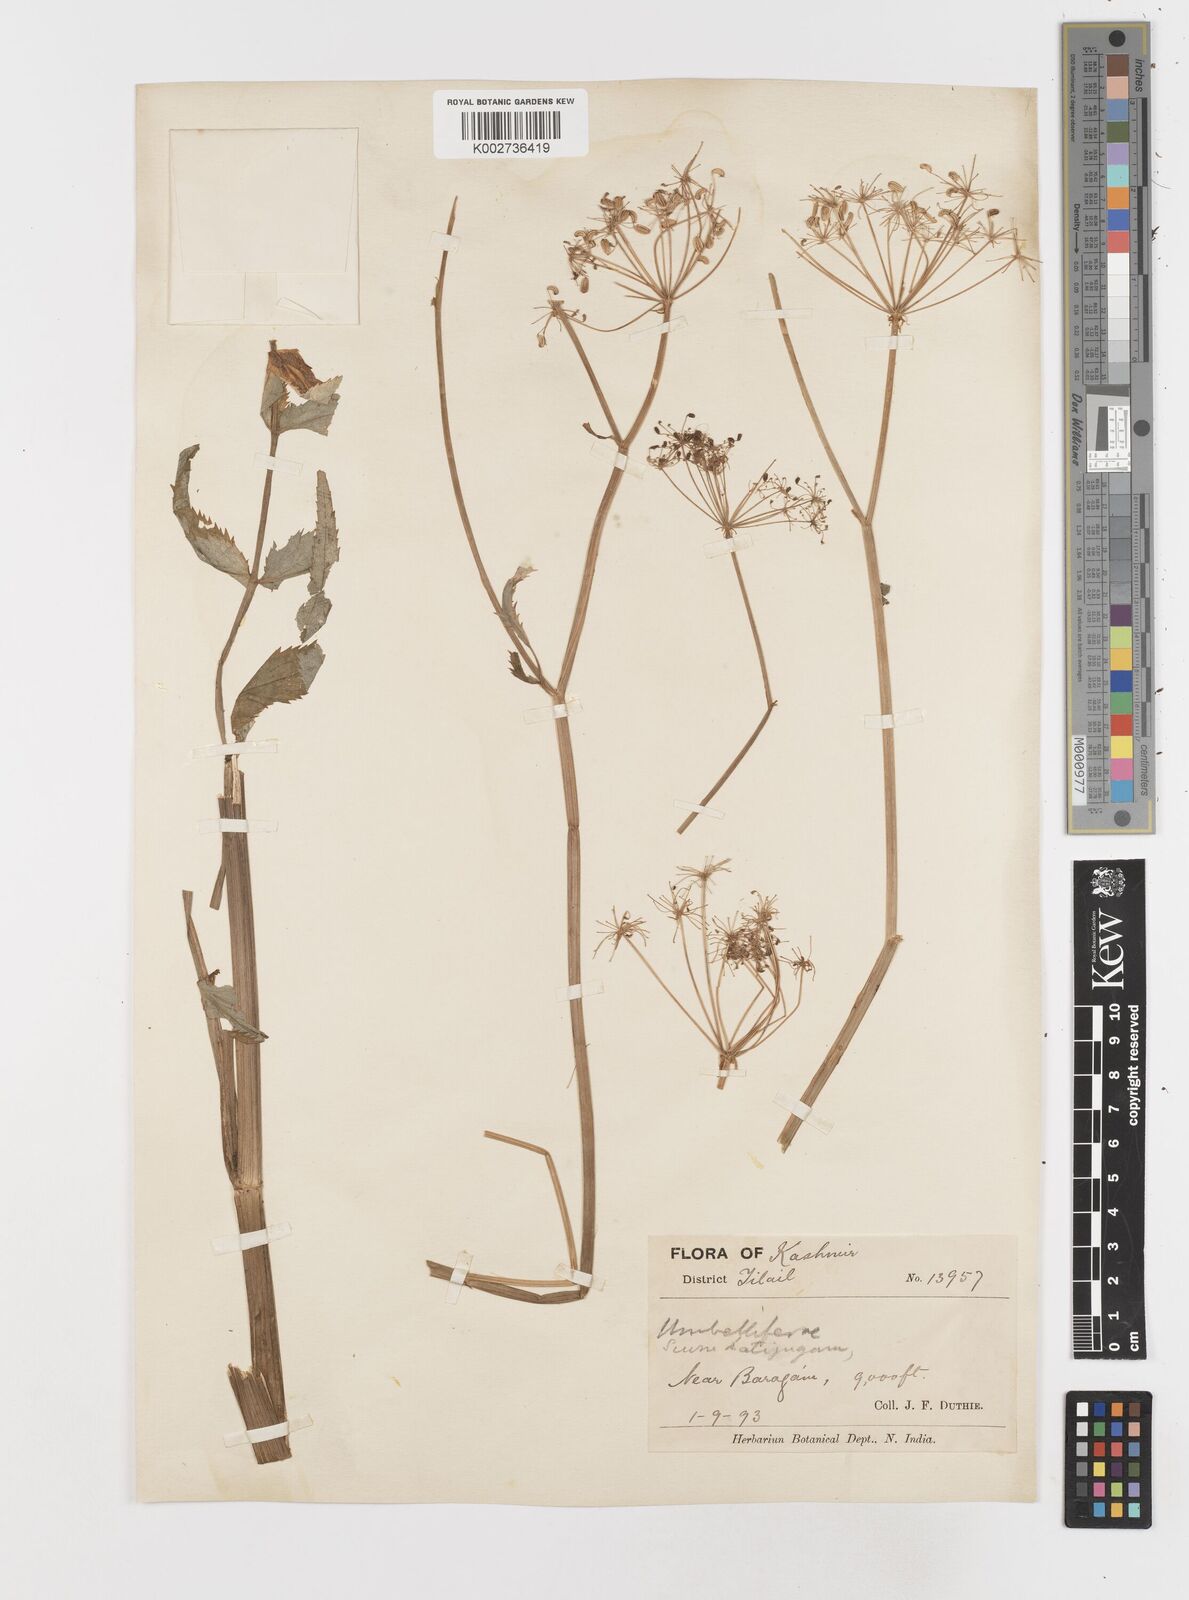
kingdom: Plantae
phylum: Tracheophyta
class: Magnoliopsida
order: Apiales
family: Apiaceae
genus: Sium
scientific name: Sium sisarum
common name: Skirret
